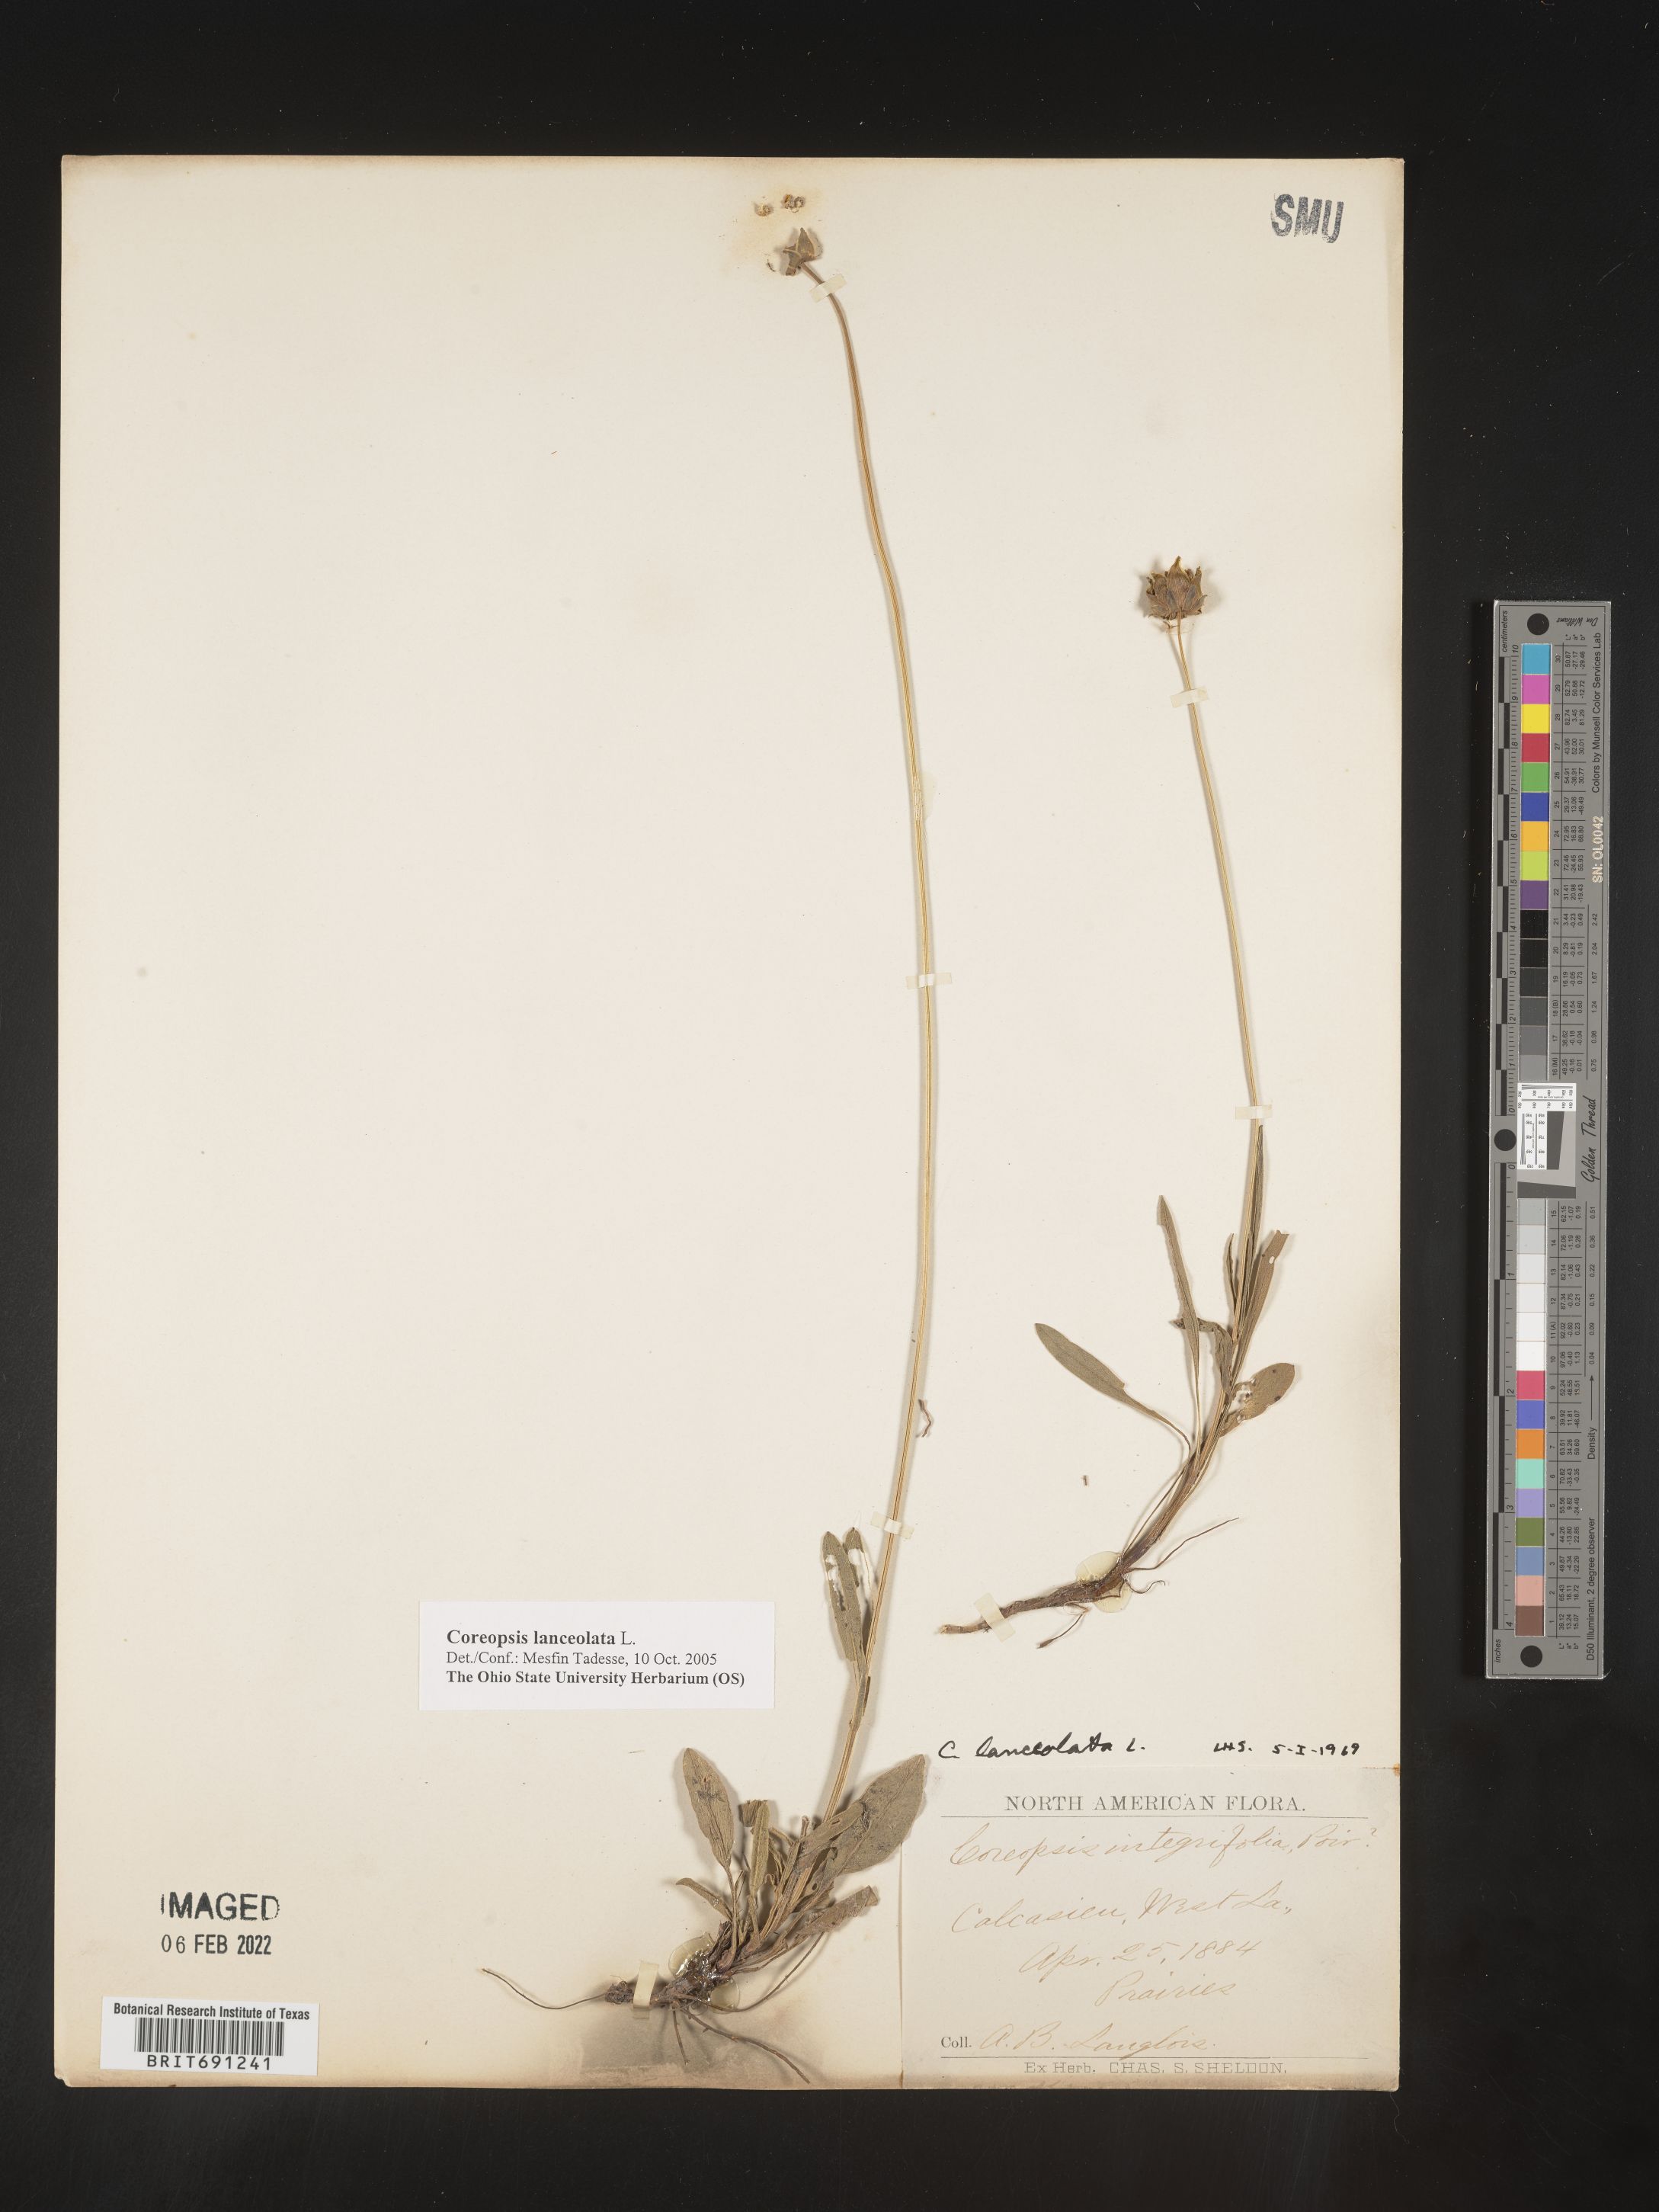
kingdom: Plantae
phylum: Tracheophyta
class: Magnoliopsida
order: Asterales
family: Asteraceae
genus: Coreopsis
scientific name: Coreopsis lanceolata
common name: Garden coreopsis
